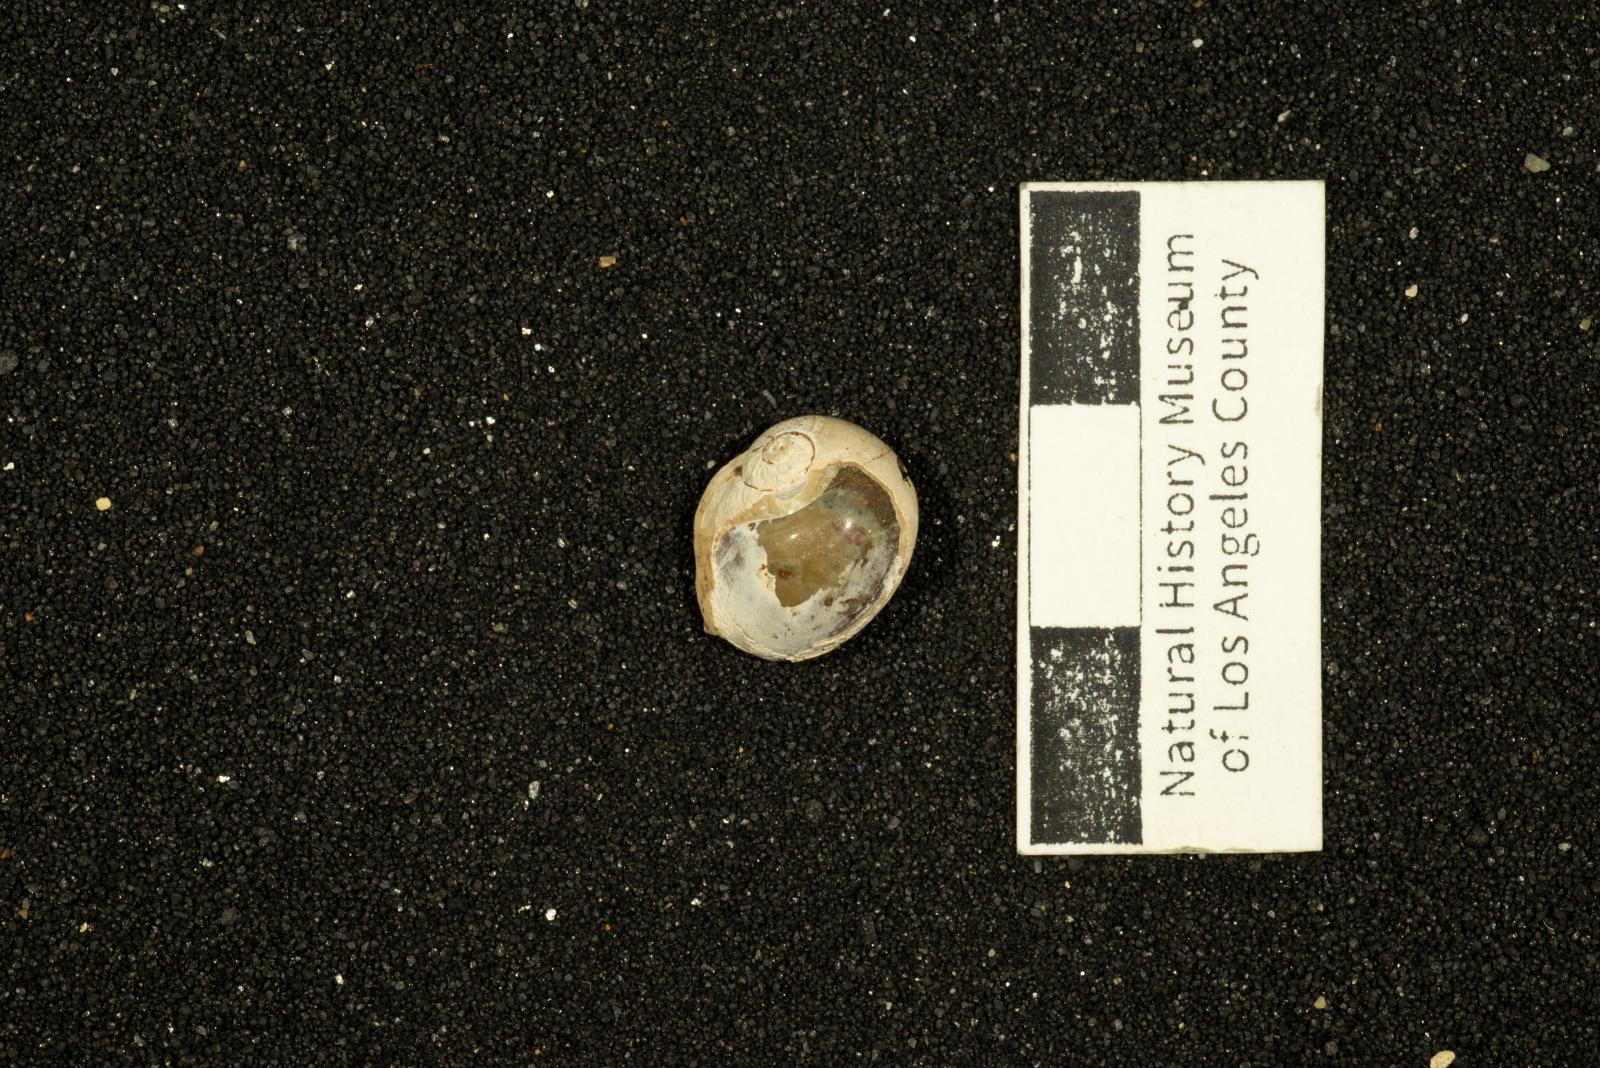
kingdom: Animalia
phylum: Mollusca
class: Gastropoda
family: Gyrodidae
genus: Gyrodes
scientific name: Gyrodes banites
